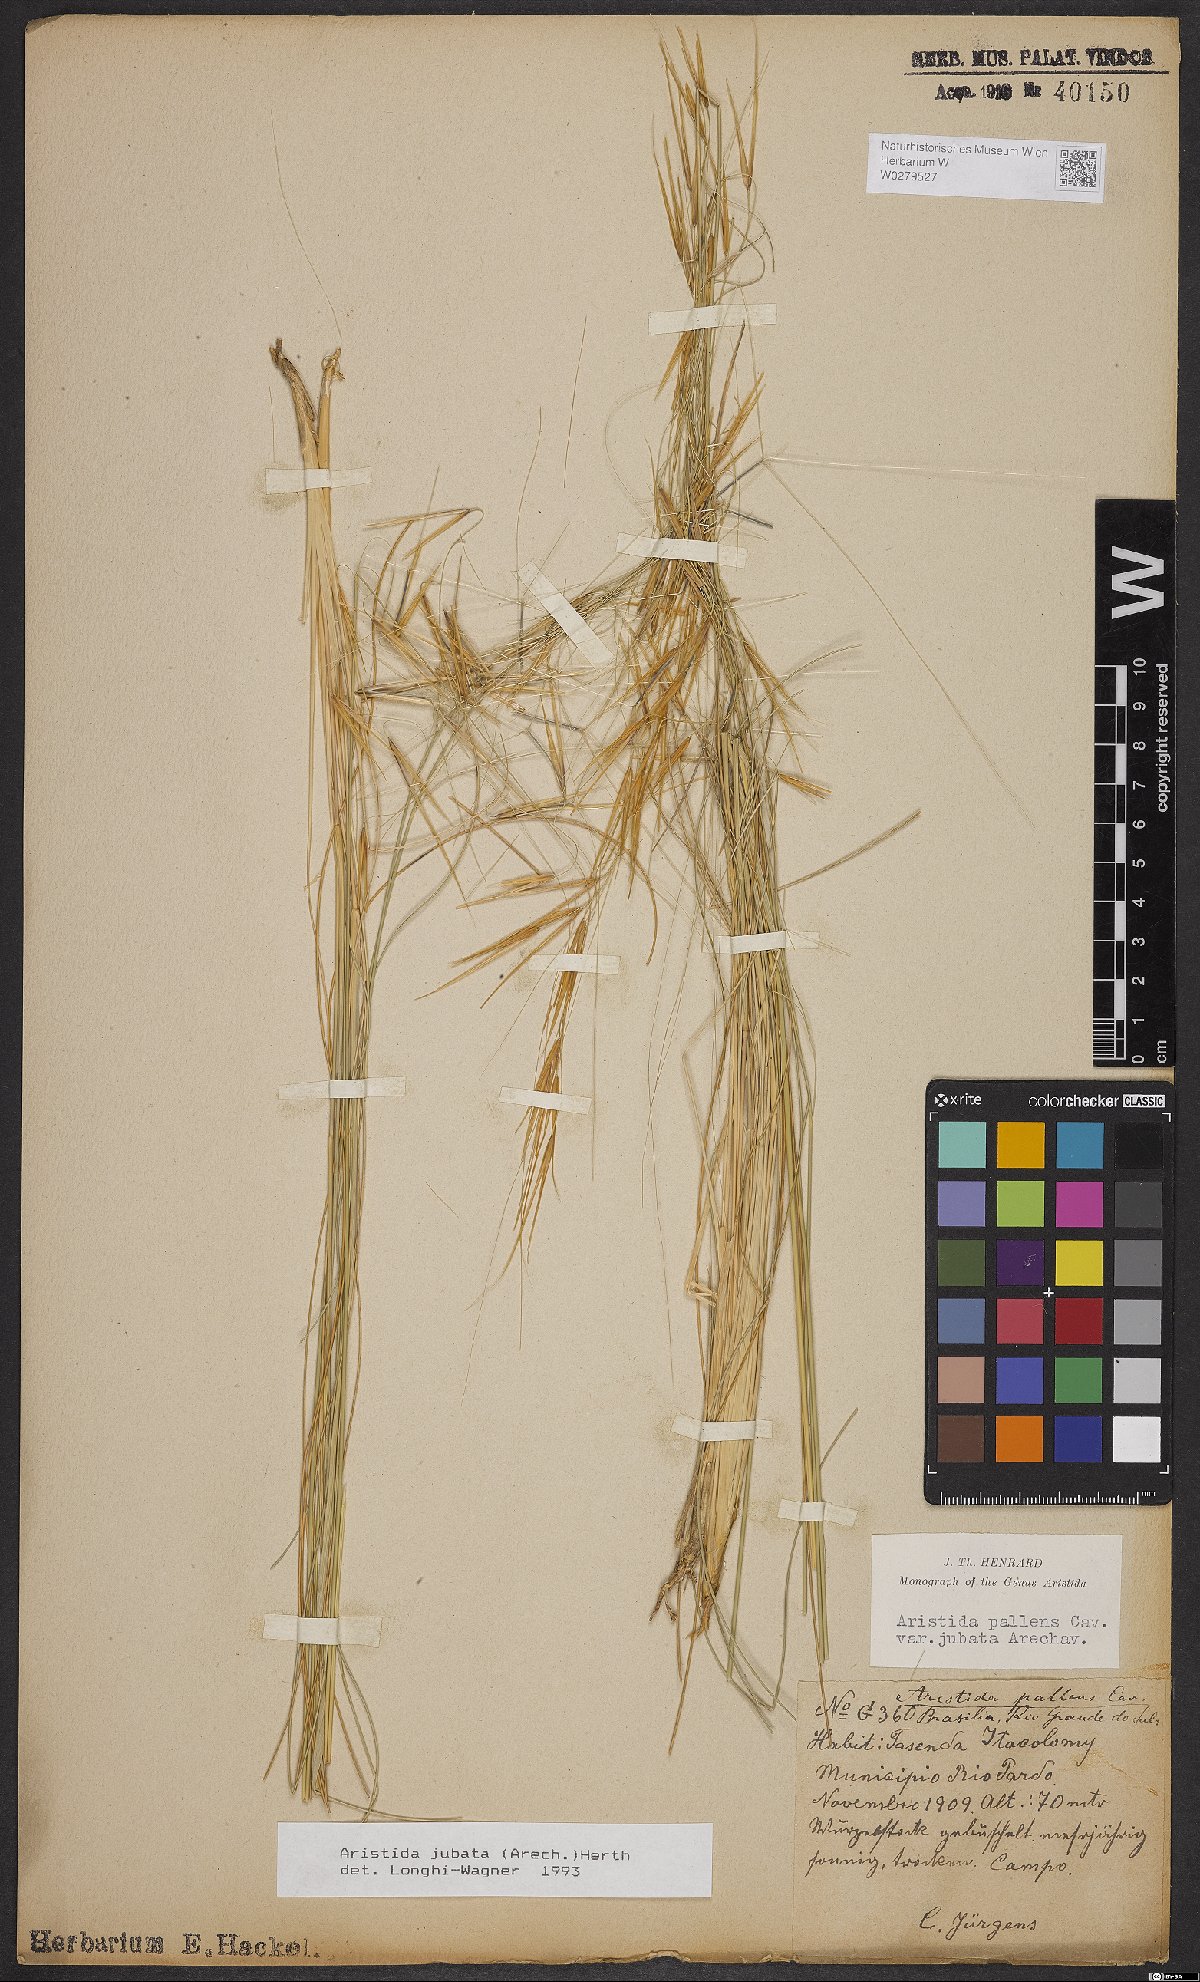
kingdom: Plantae
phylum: Tracheophyta
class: Liliopsida
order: Poales
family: Poaceae
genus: Aristida
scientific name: Aristida jubata
